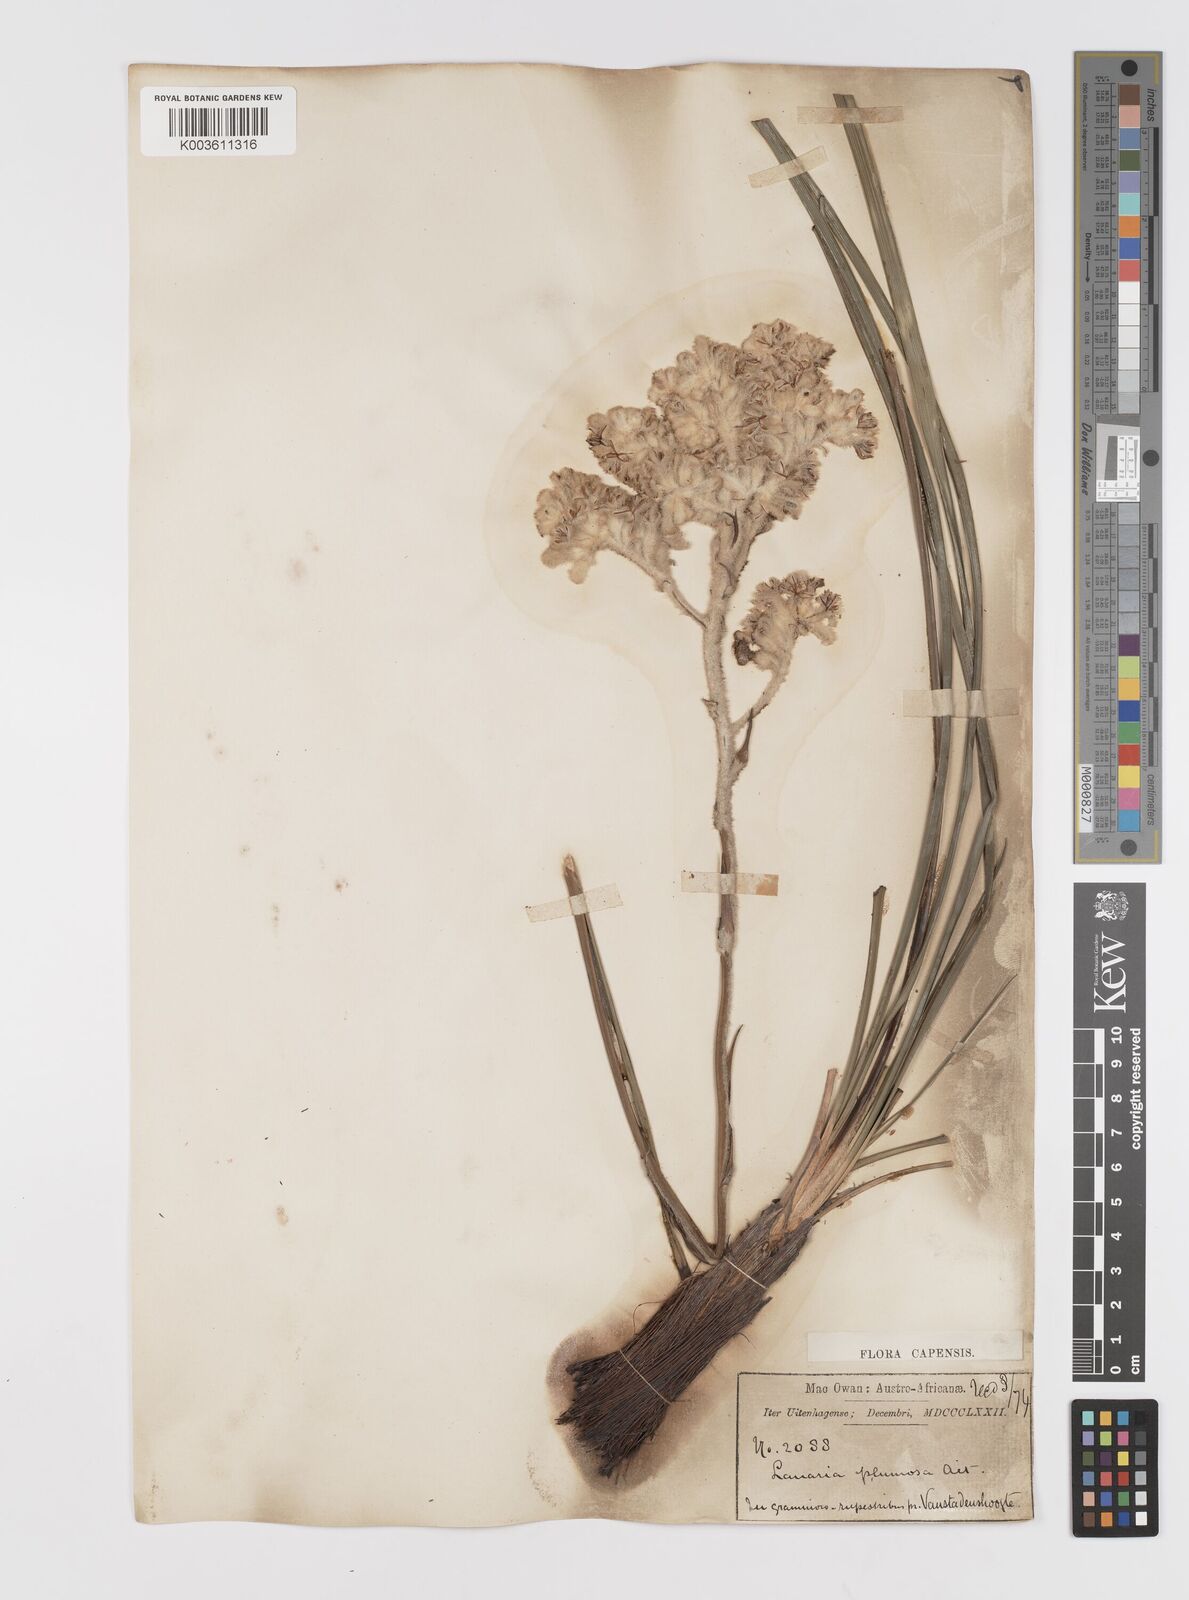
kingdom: Plantae
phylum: Tracheophyta
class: Liliopsida
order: Asparagales
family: Lanariaceae
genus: Lanaria
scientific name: Lanaria lanata
